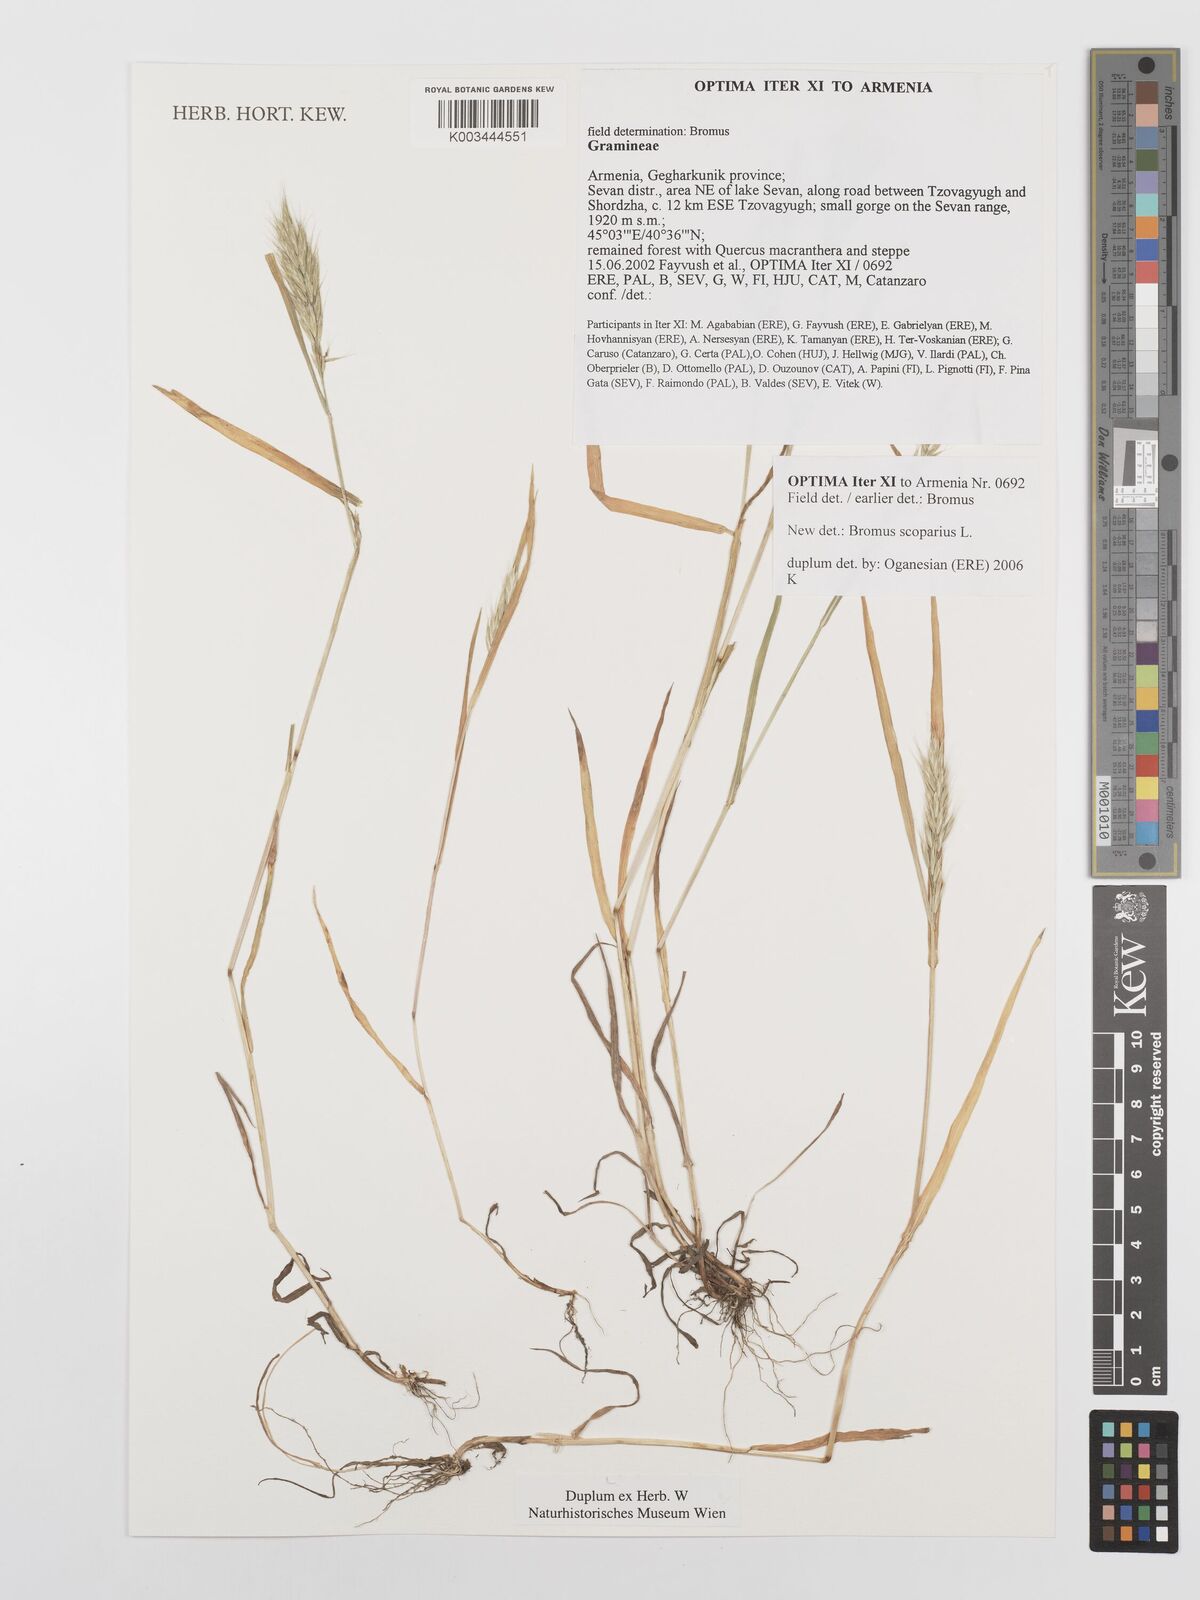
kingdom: Plantae
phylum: Tracheophyta
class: Liliopsida
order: Poales
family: Poaceae
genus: Bromus
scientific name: Bromus scoparius
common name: Broom brome
